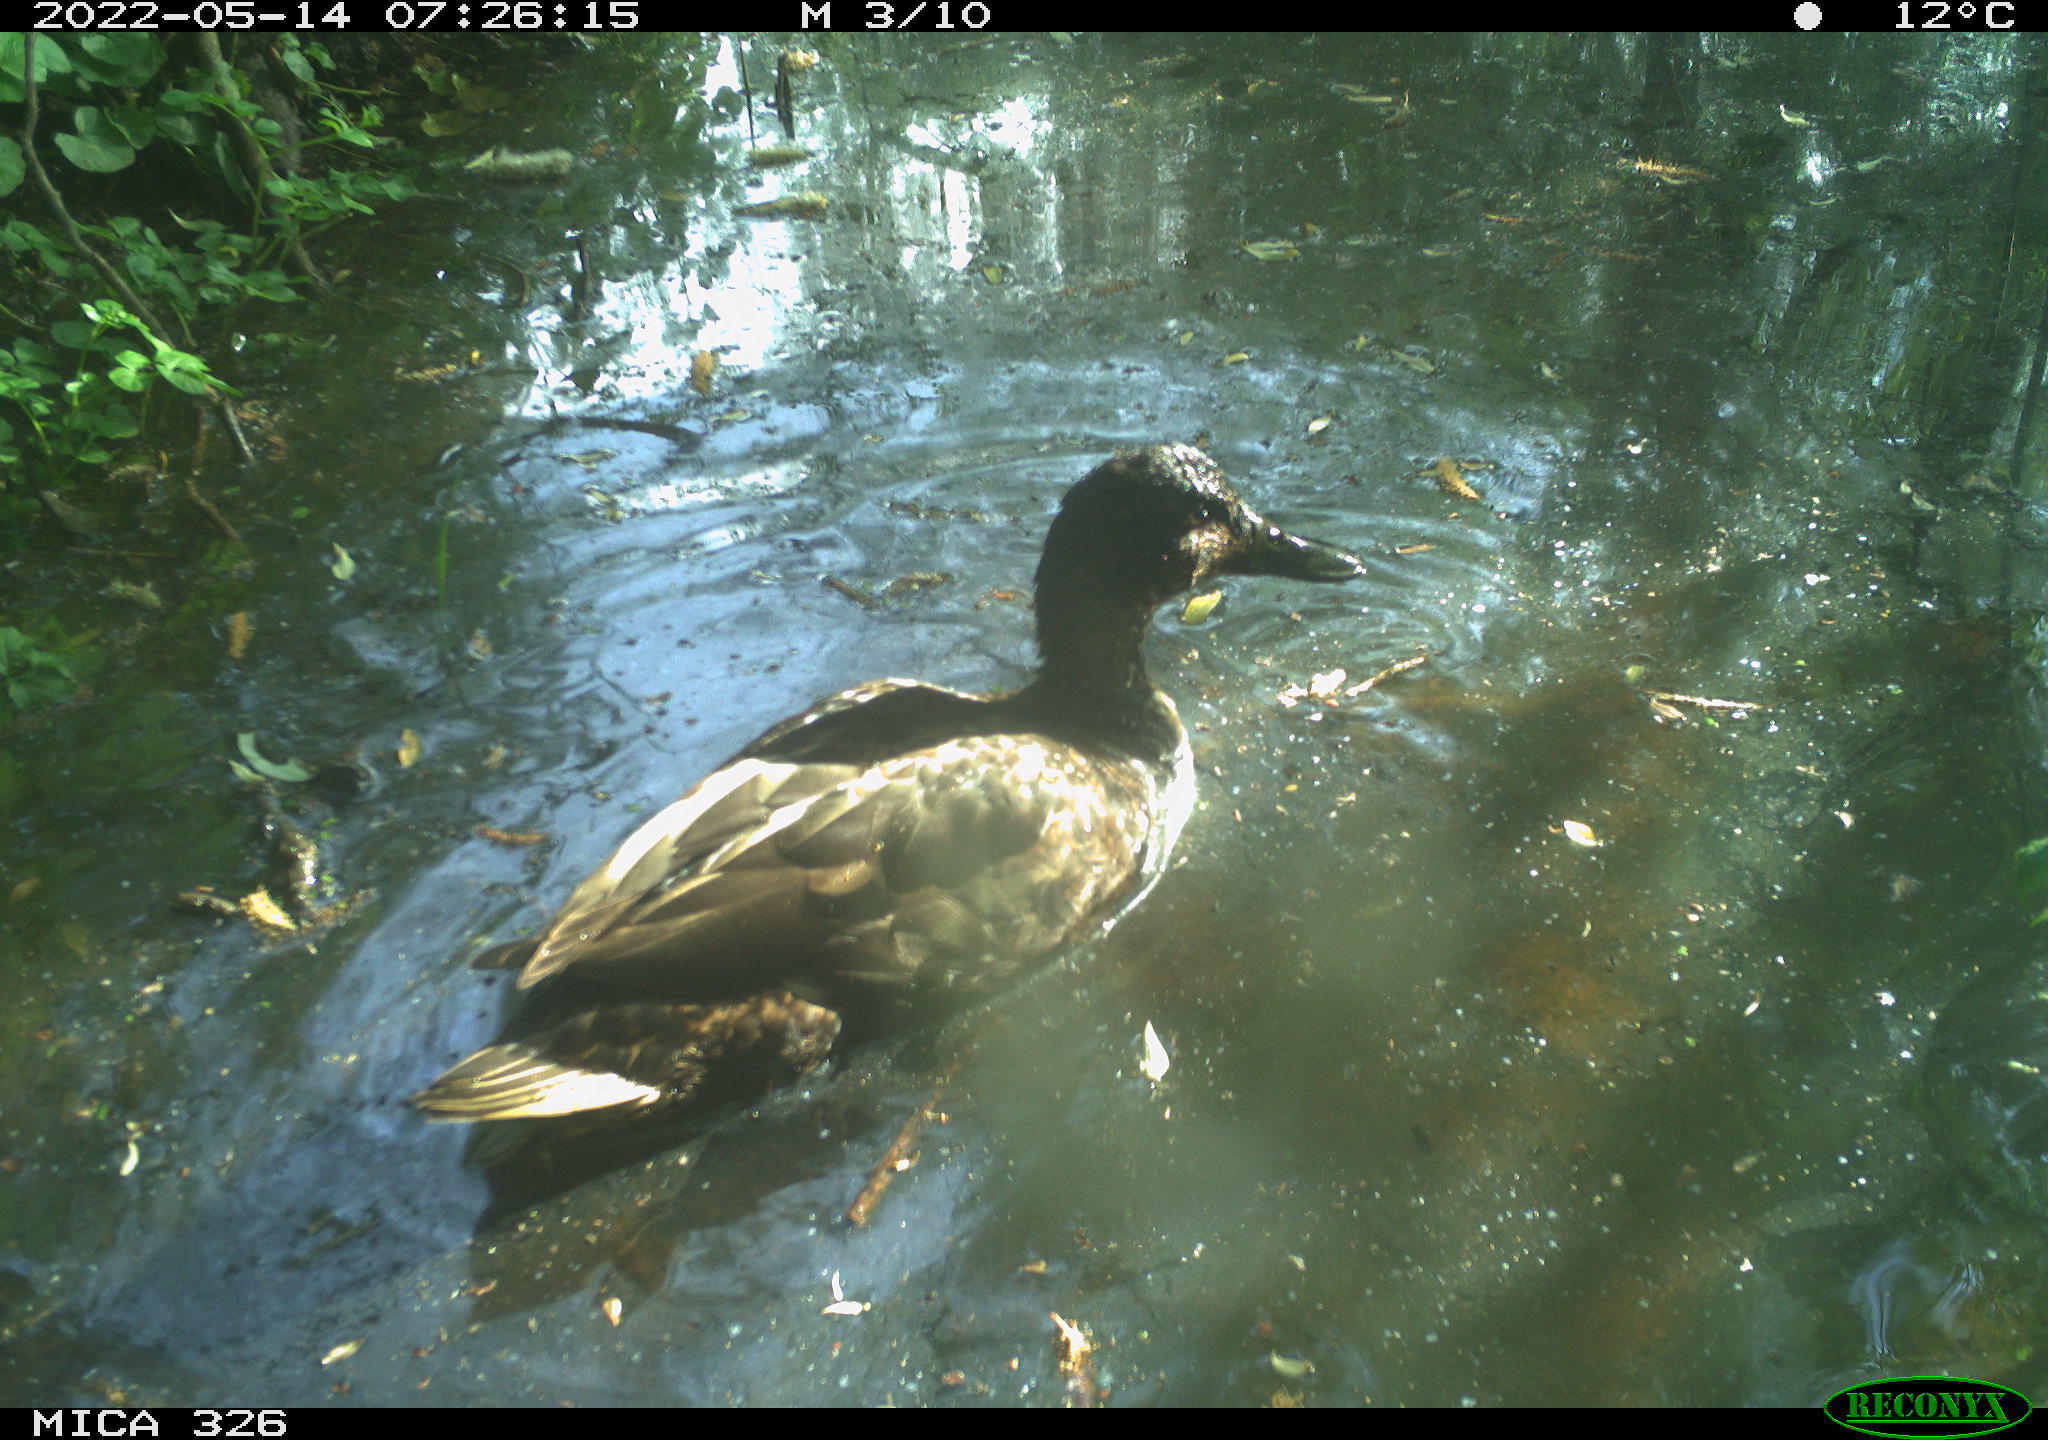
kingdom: Animalia
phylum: Chordata
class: Aves
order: Anseriformes
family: Anatidae
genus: Anas
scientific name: Anas
